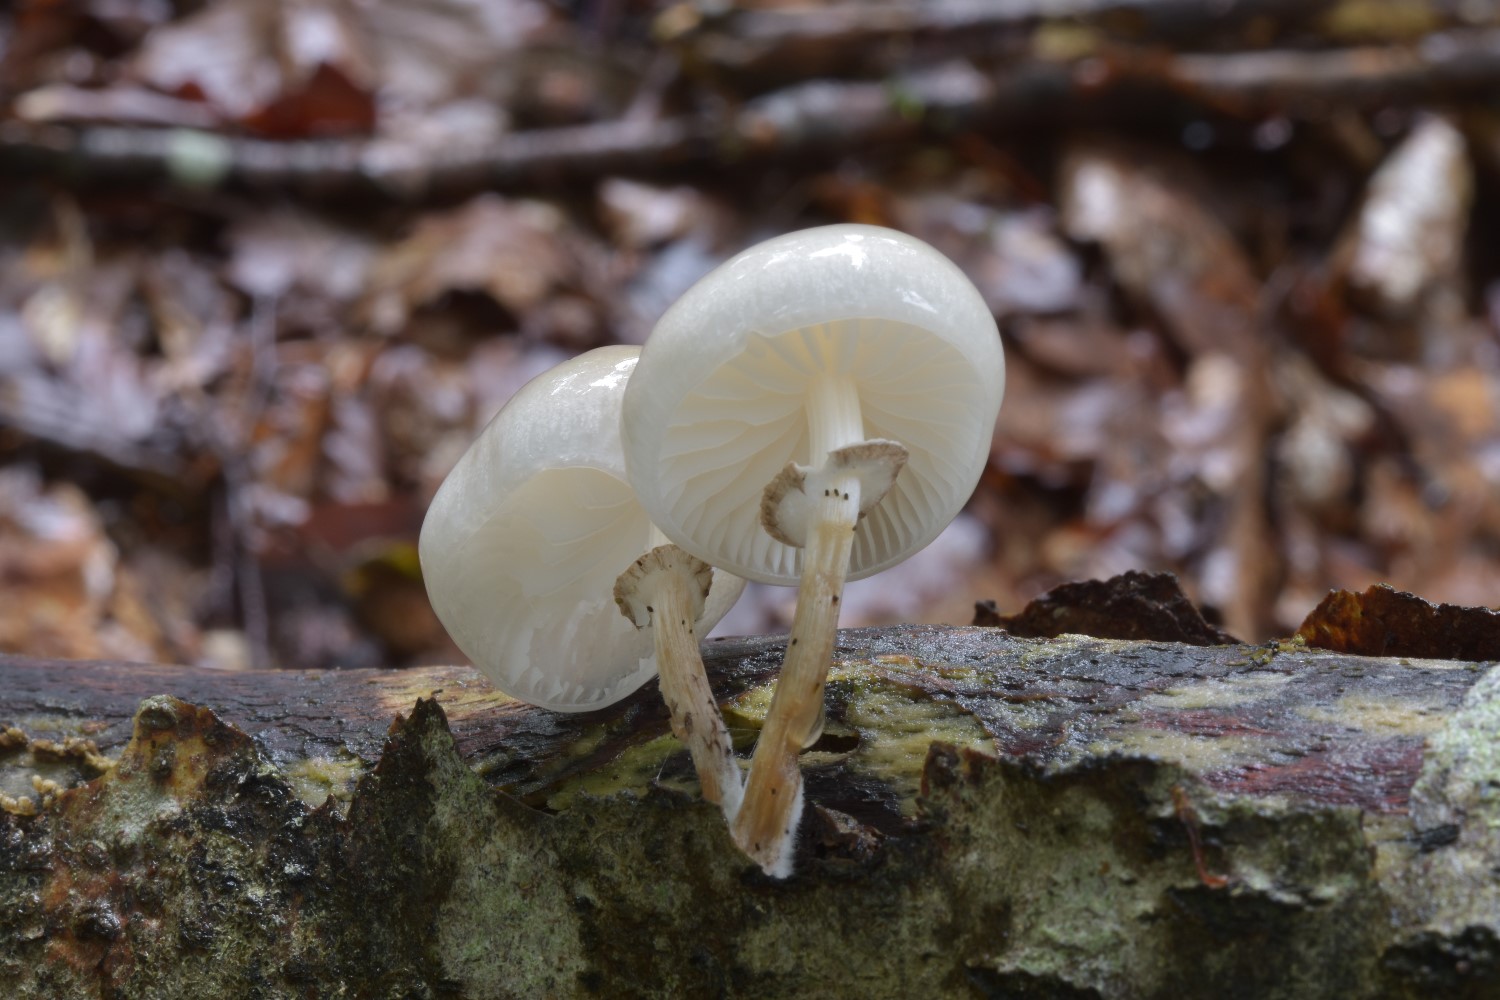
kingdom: Fungi
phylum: Basidiomycota
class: Agaricomycetes
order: Agaricales
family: Physalacriaceae
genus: Mucidula
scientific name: Mucidula mucida
